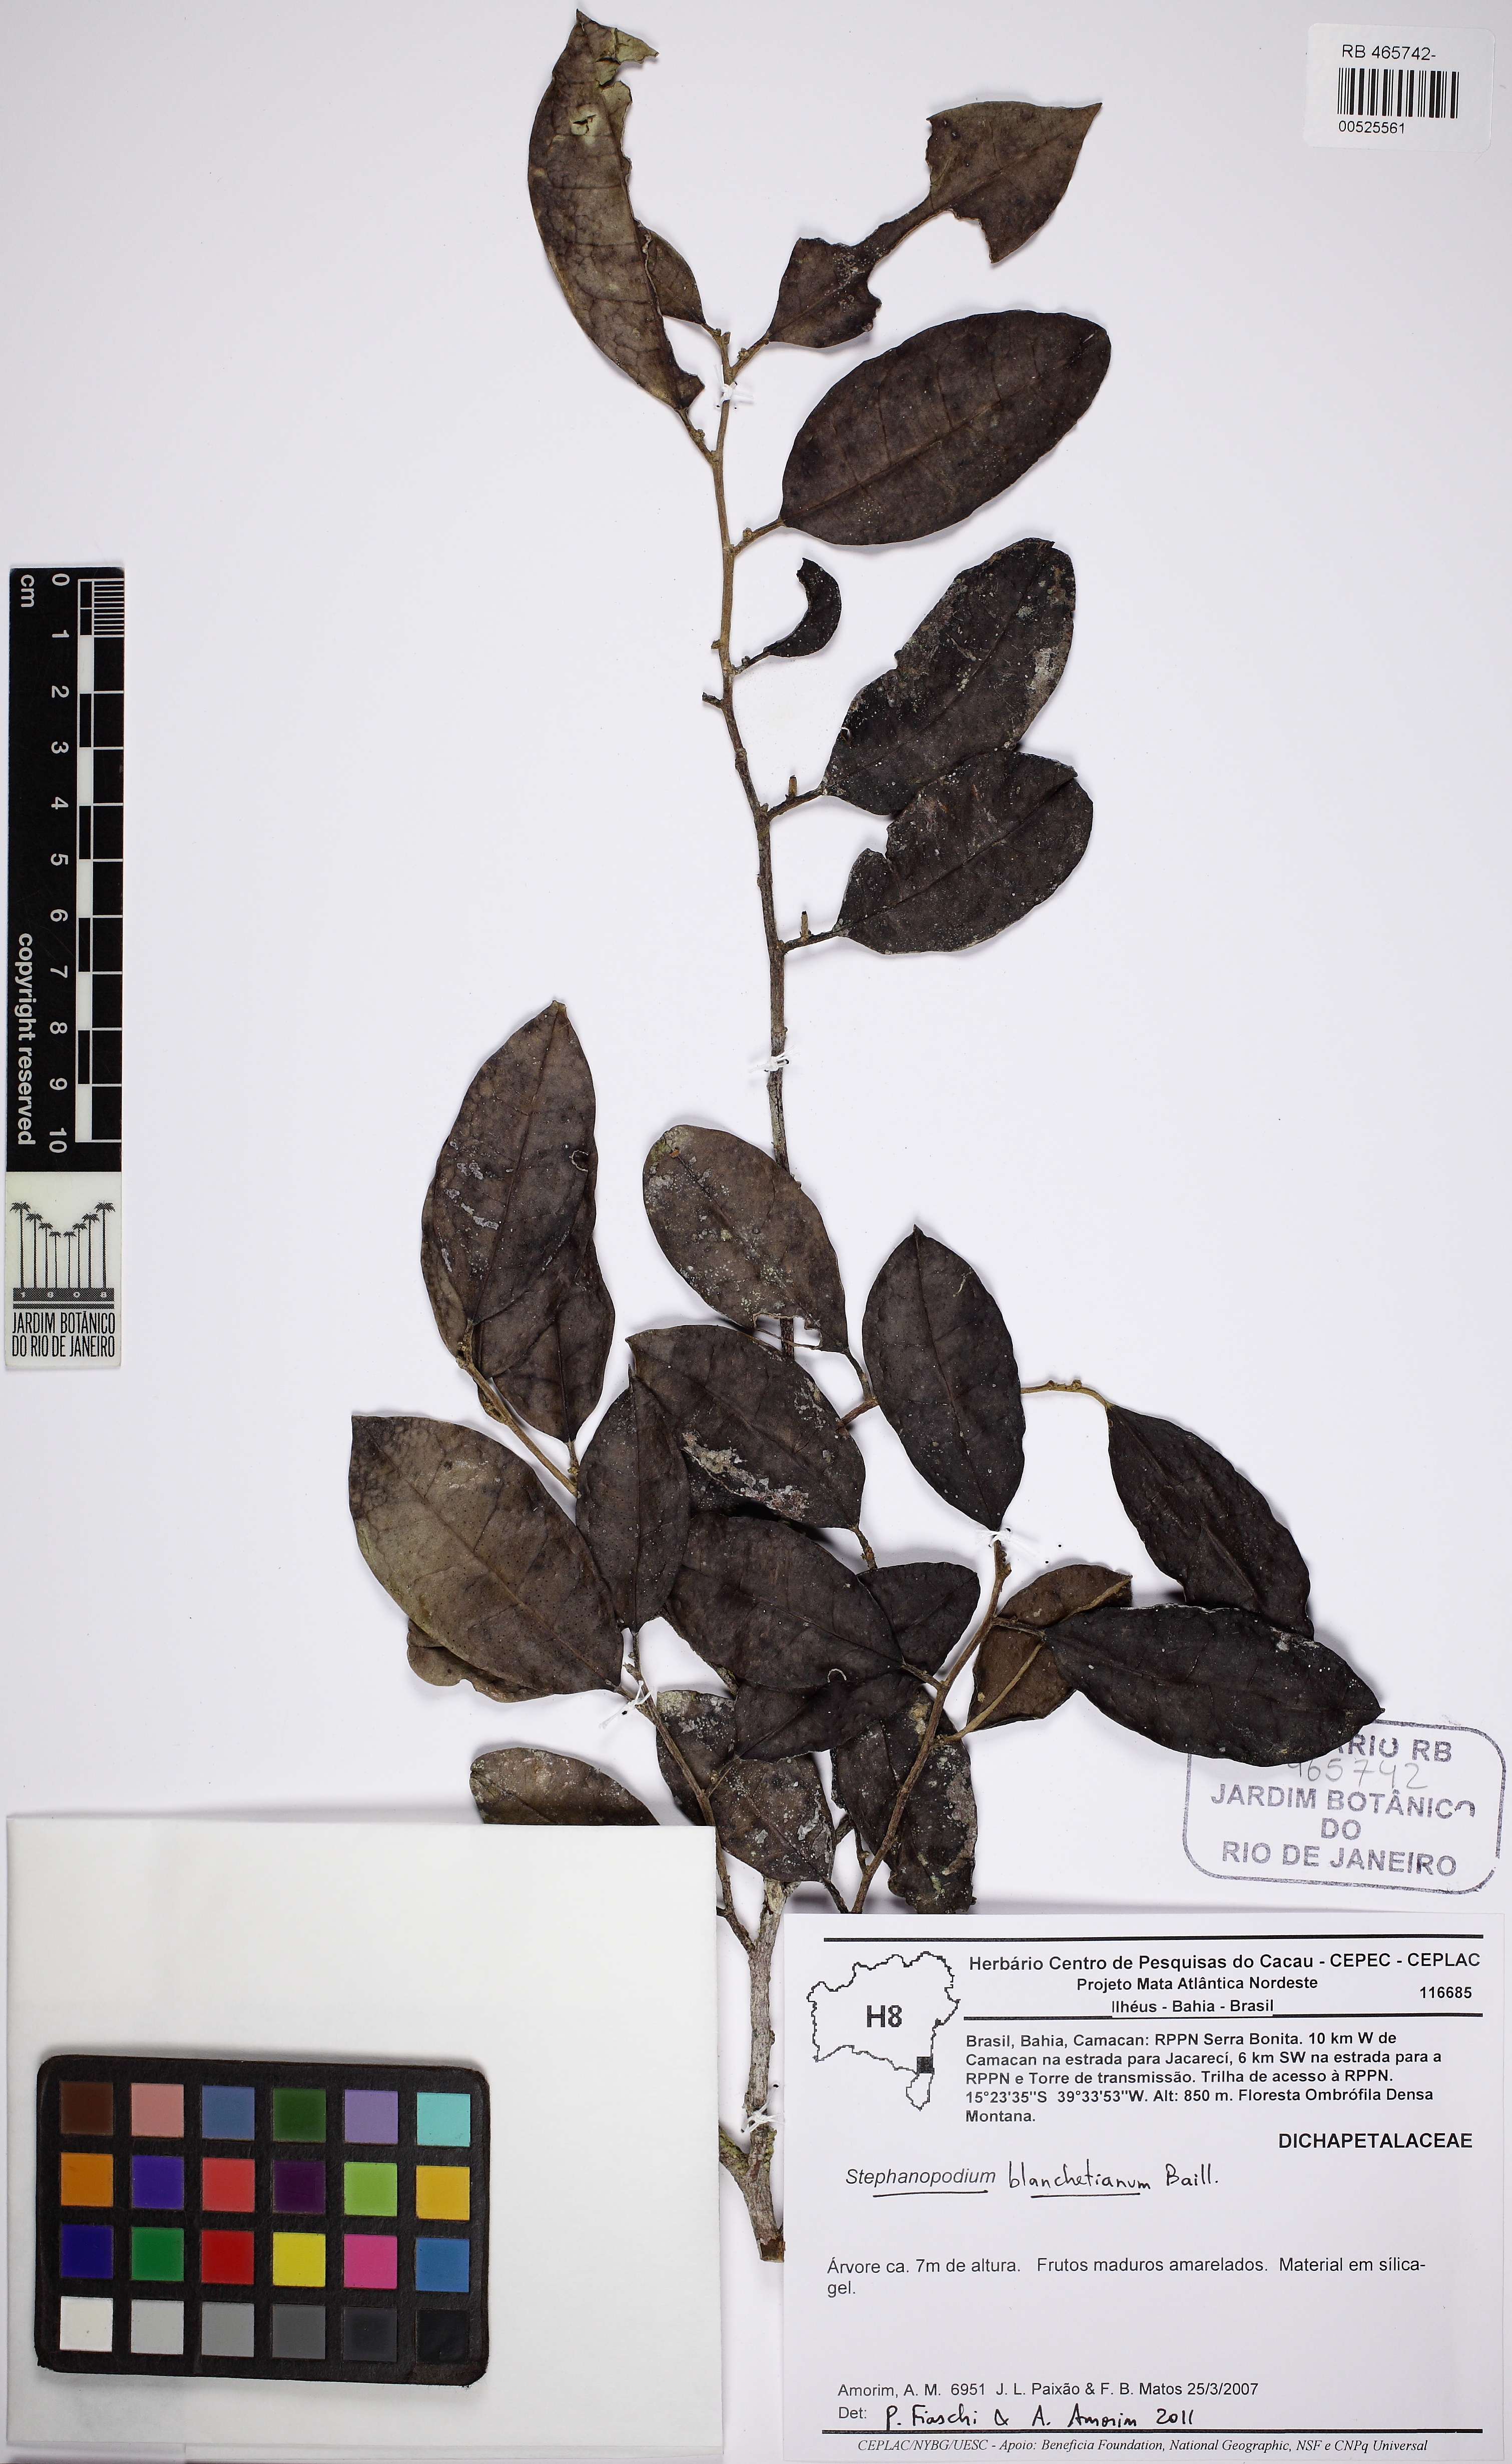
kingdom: Plantae
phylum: Tracheophyta
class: Magnoliopsida
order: Malpighiales
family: Dichapetalaceae
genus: Stephanopodium
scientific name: Stephanopodium blanchetianum
